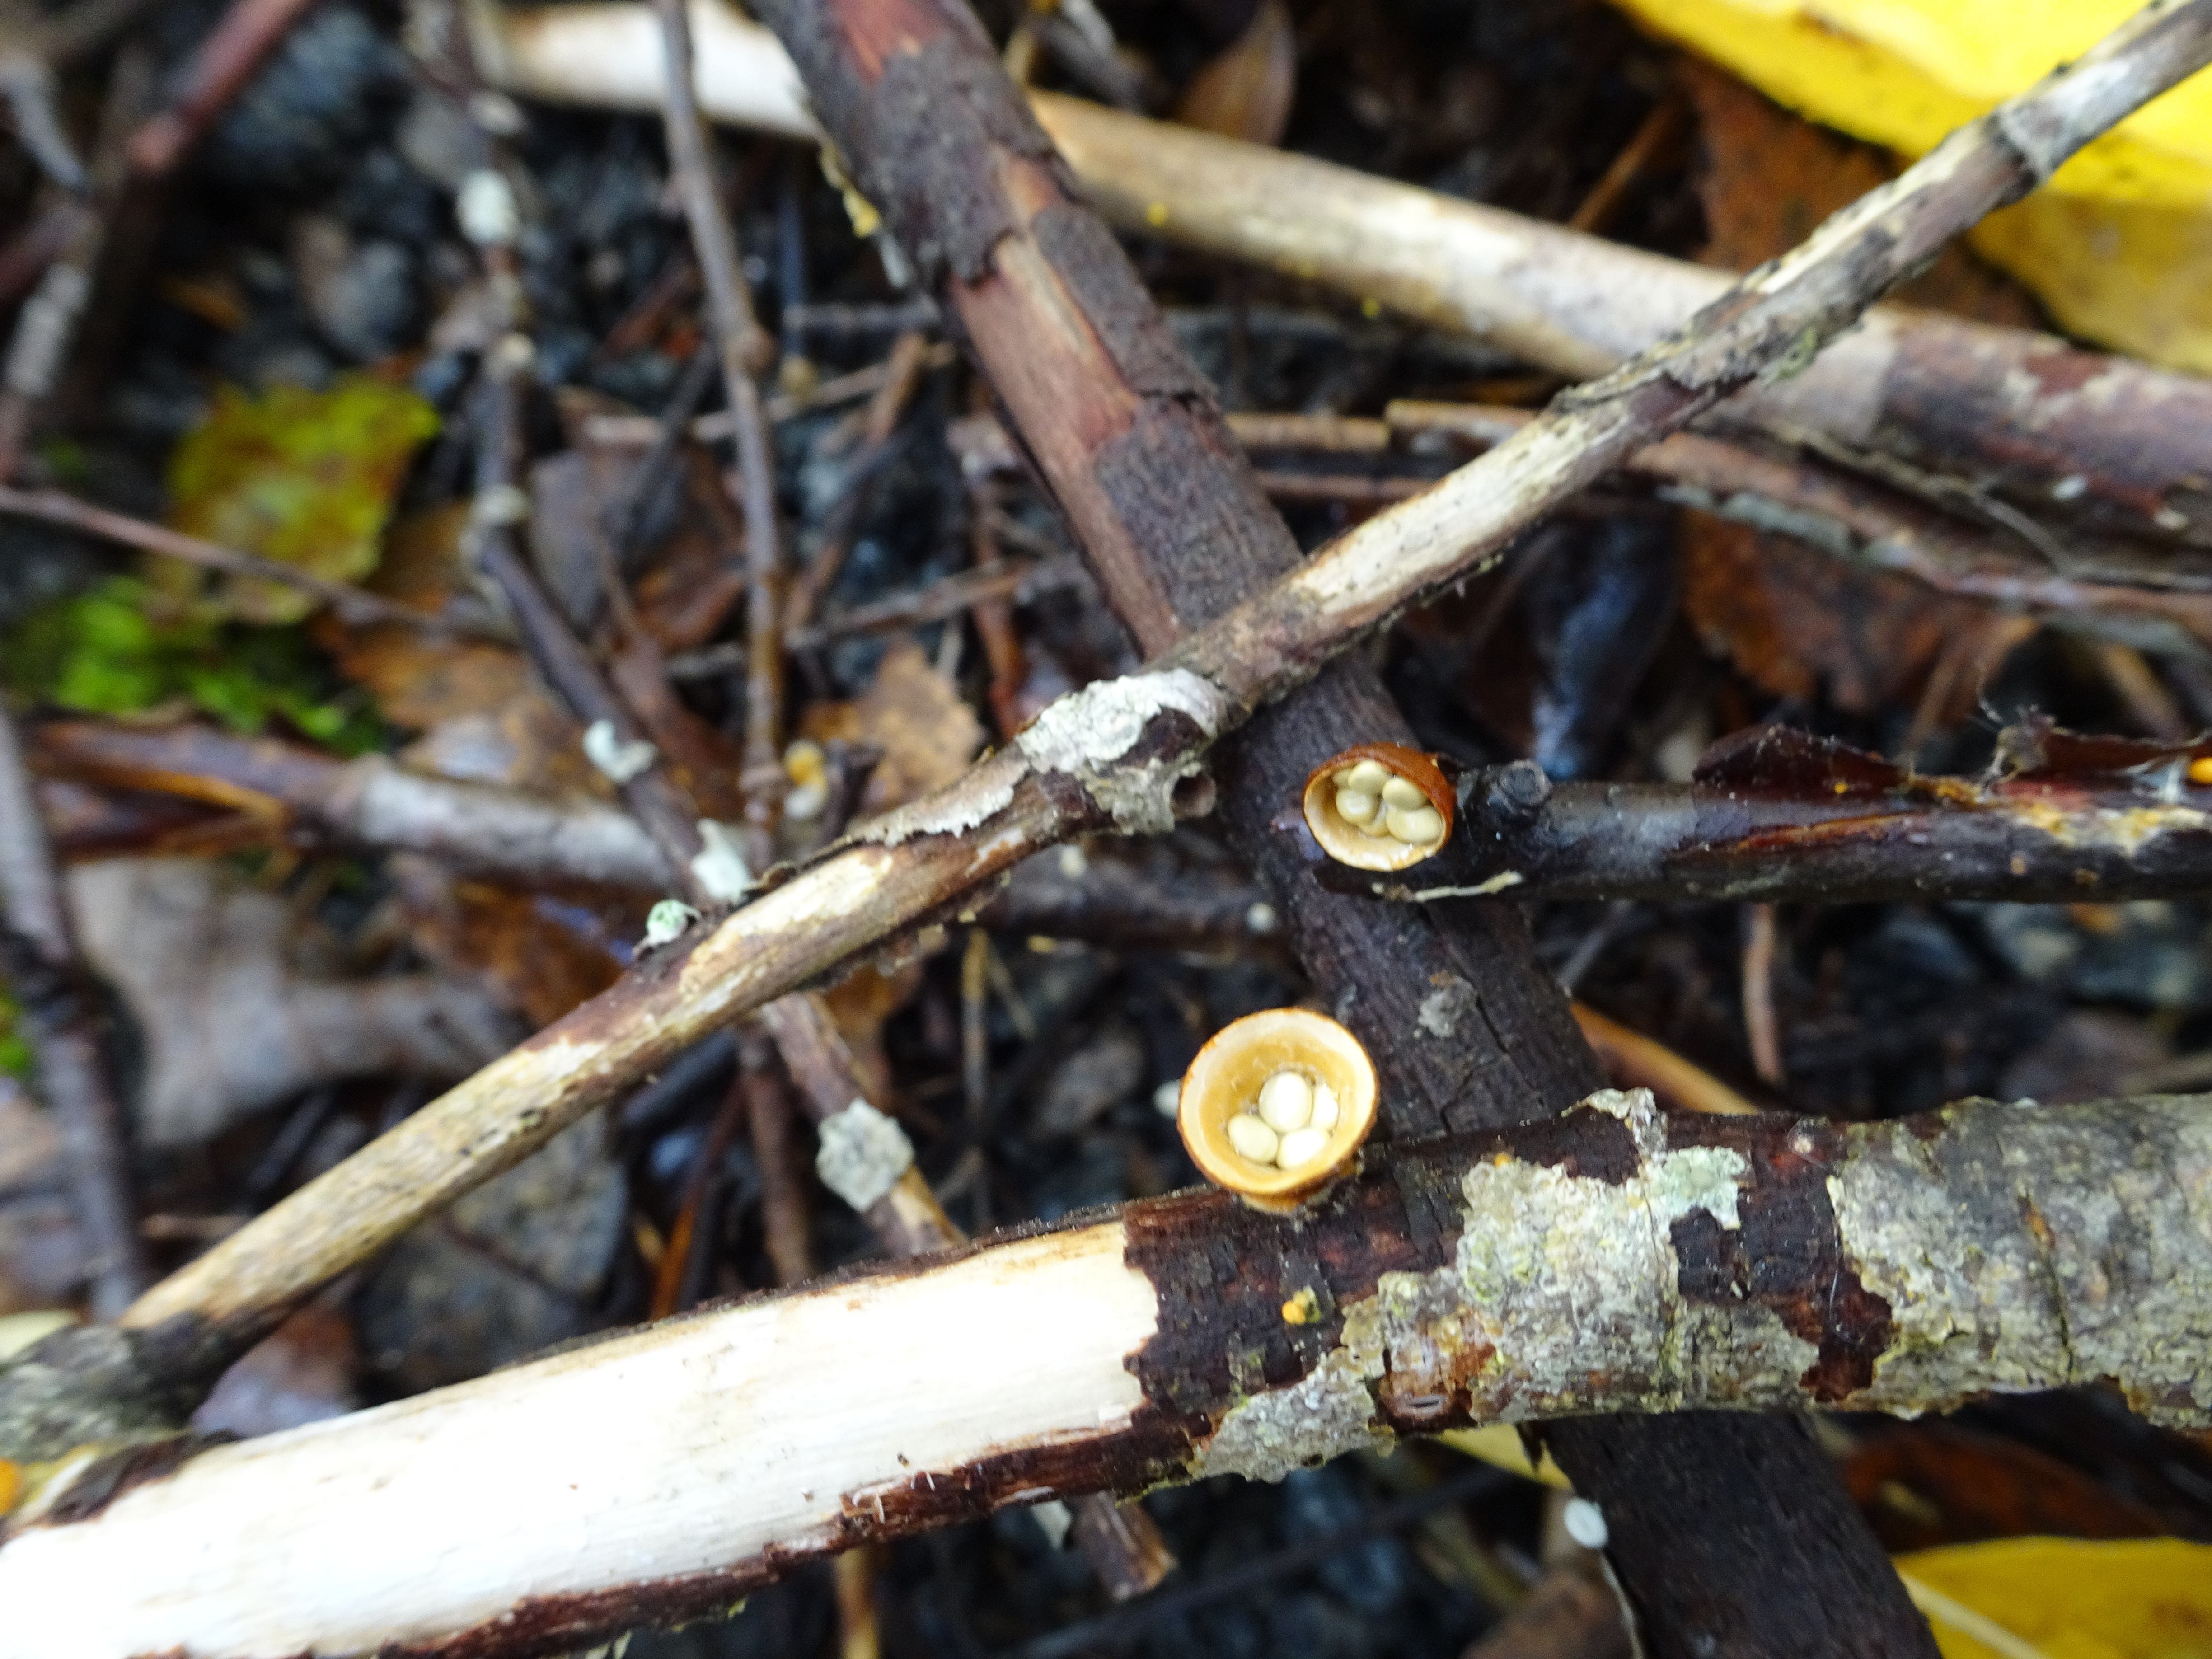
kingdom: Fungi
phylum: Basidiomycota
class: Agaricomycetes
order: Agaricales
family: Nidulariaceae
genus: Crucibulum
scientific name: Crucibulum laeve
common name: Common bird's nest
